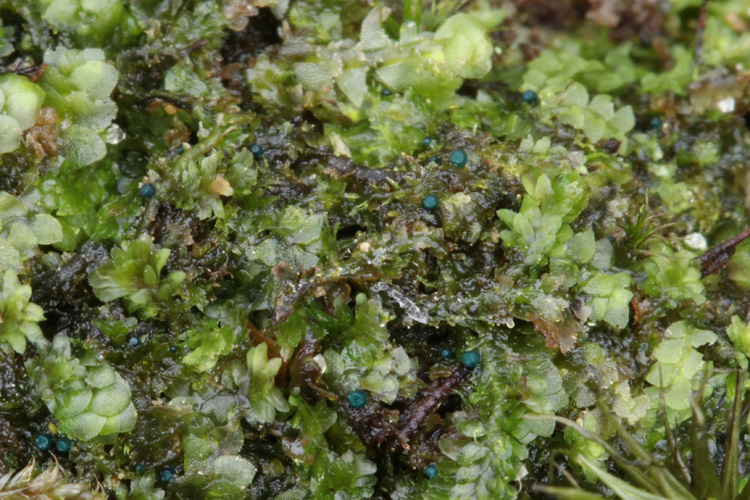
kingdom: Fungi
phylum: Ascomycota
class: Leotiomycetes
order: Leotiales
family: Mniaeciaceae
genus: Mniaecia
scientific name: Mniaecia jungermanniae
